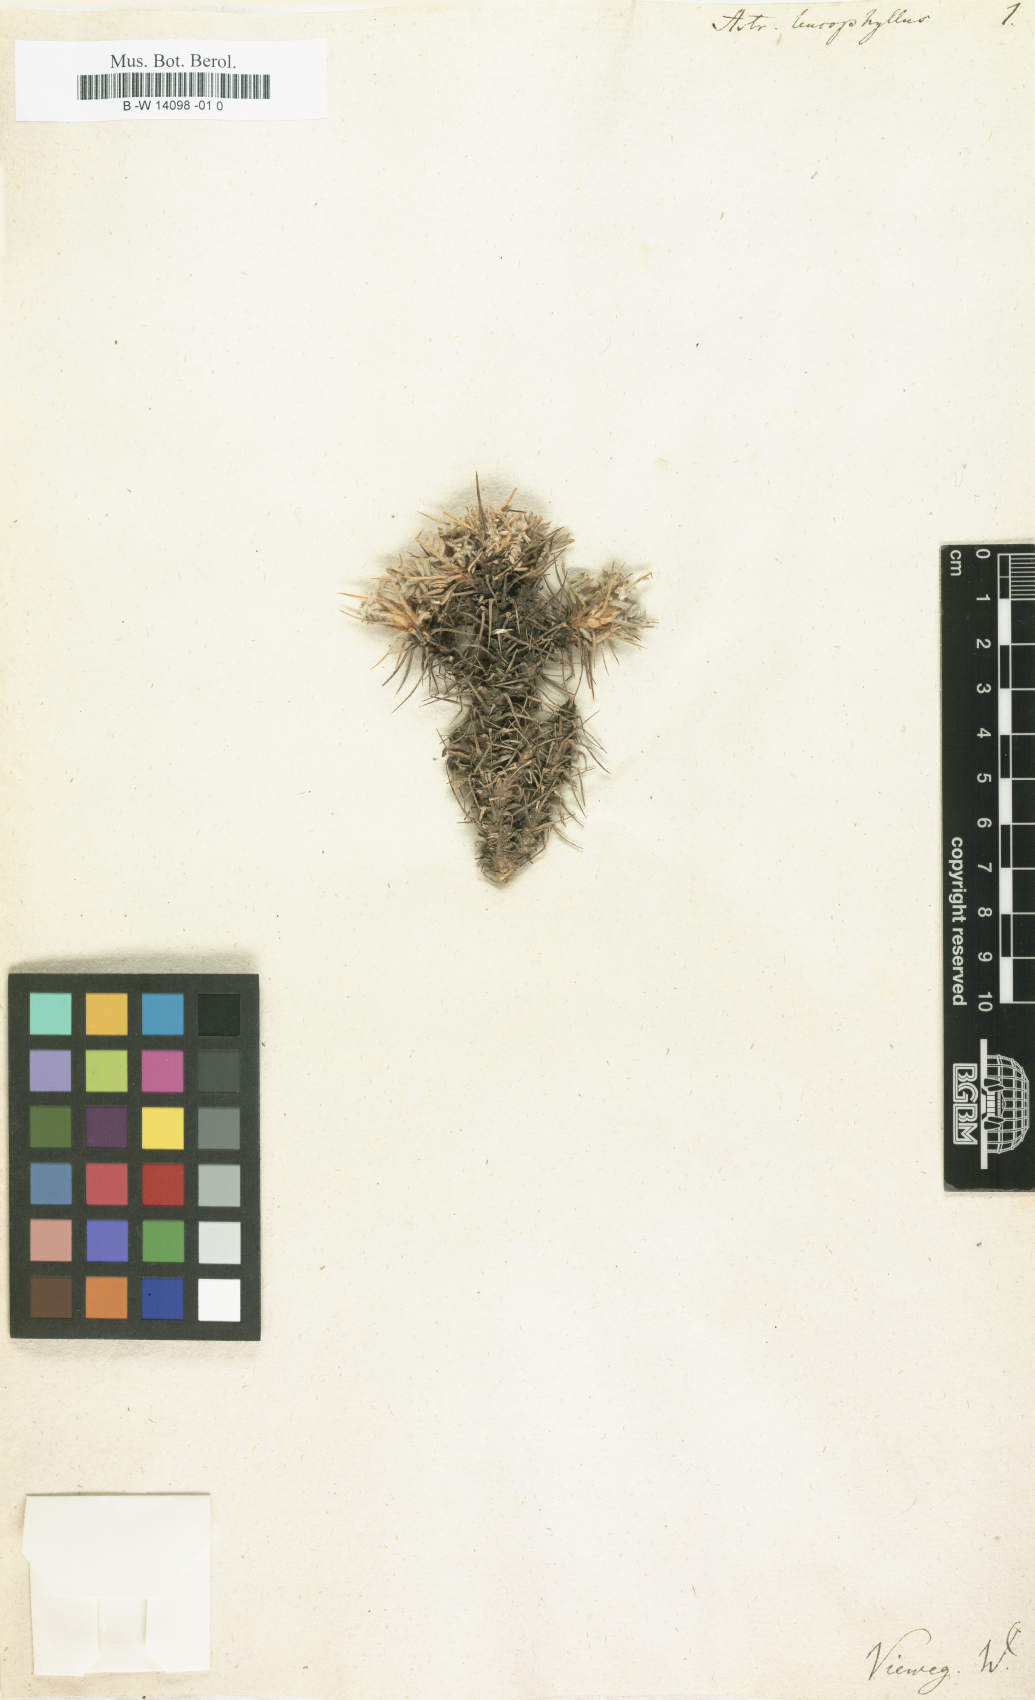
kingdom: Plantae
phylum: Tracheophyta
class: Magnoliopsida
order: Fabales
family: Fabaceae
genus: Astragalus
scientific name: Astragalus arrectus
